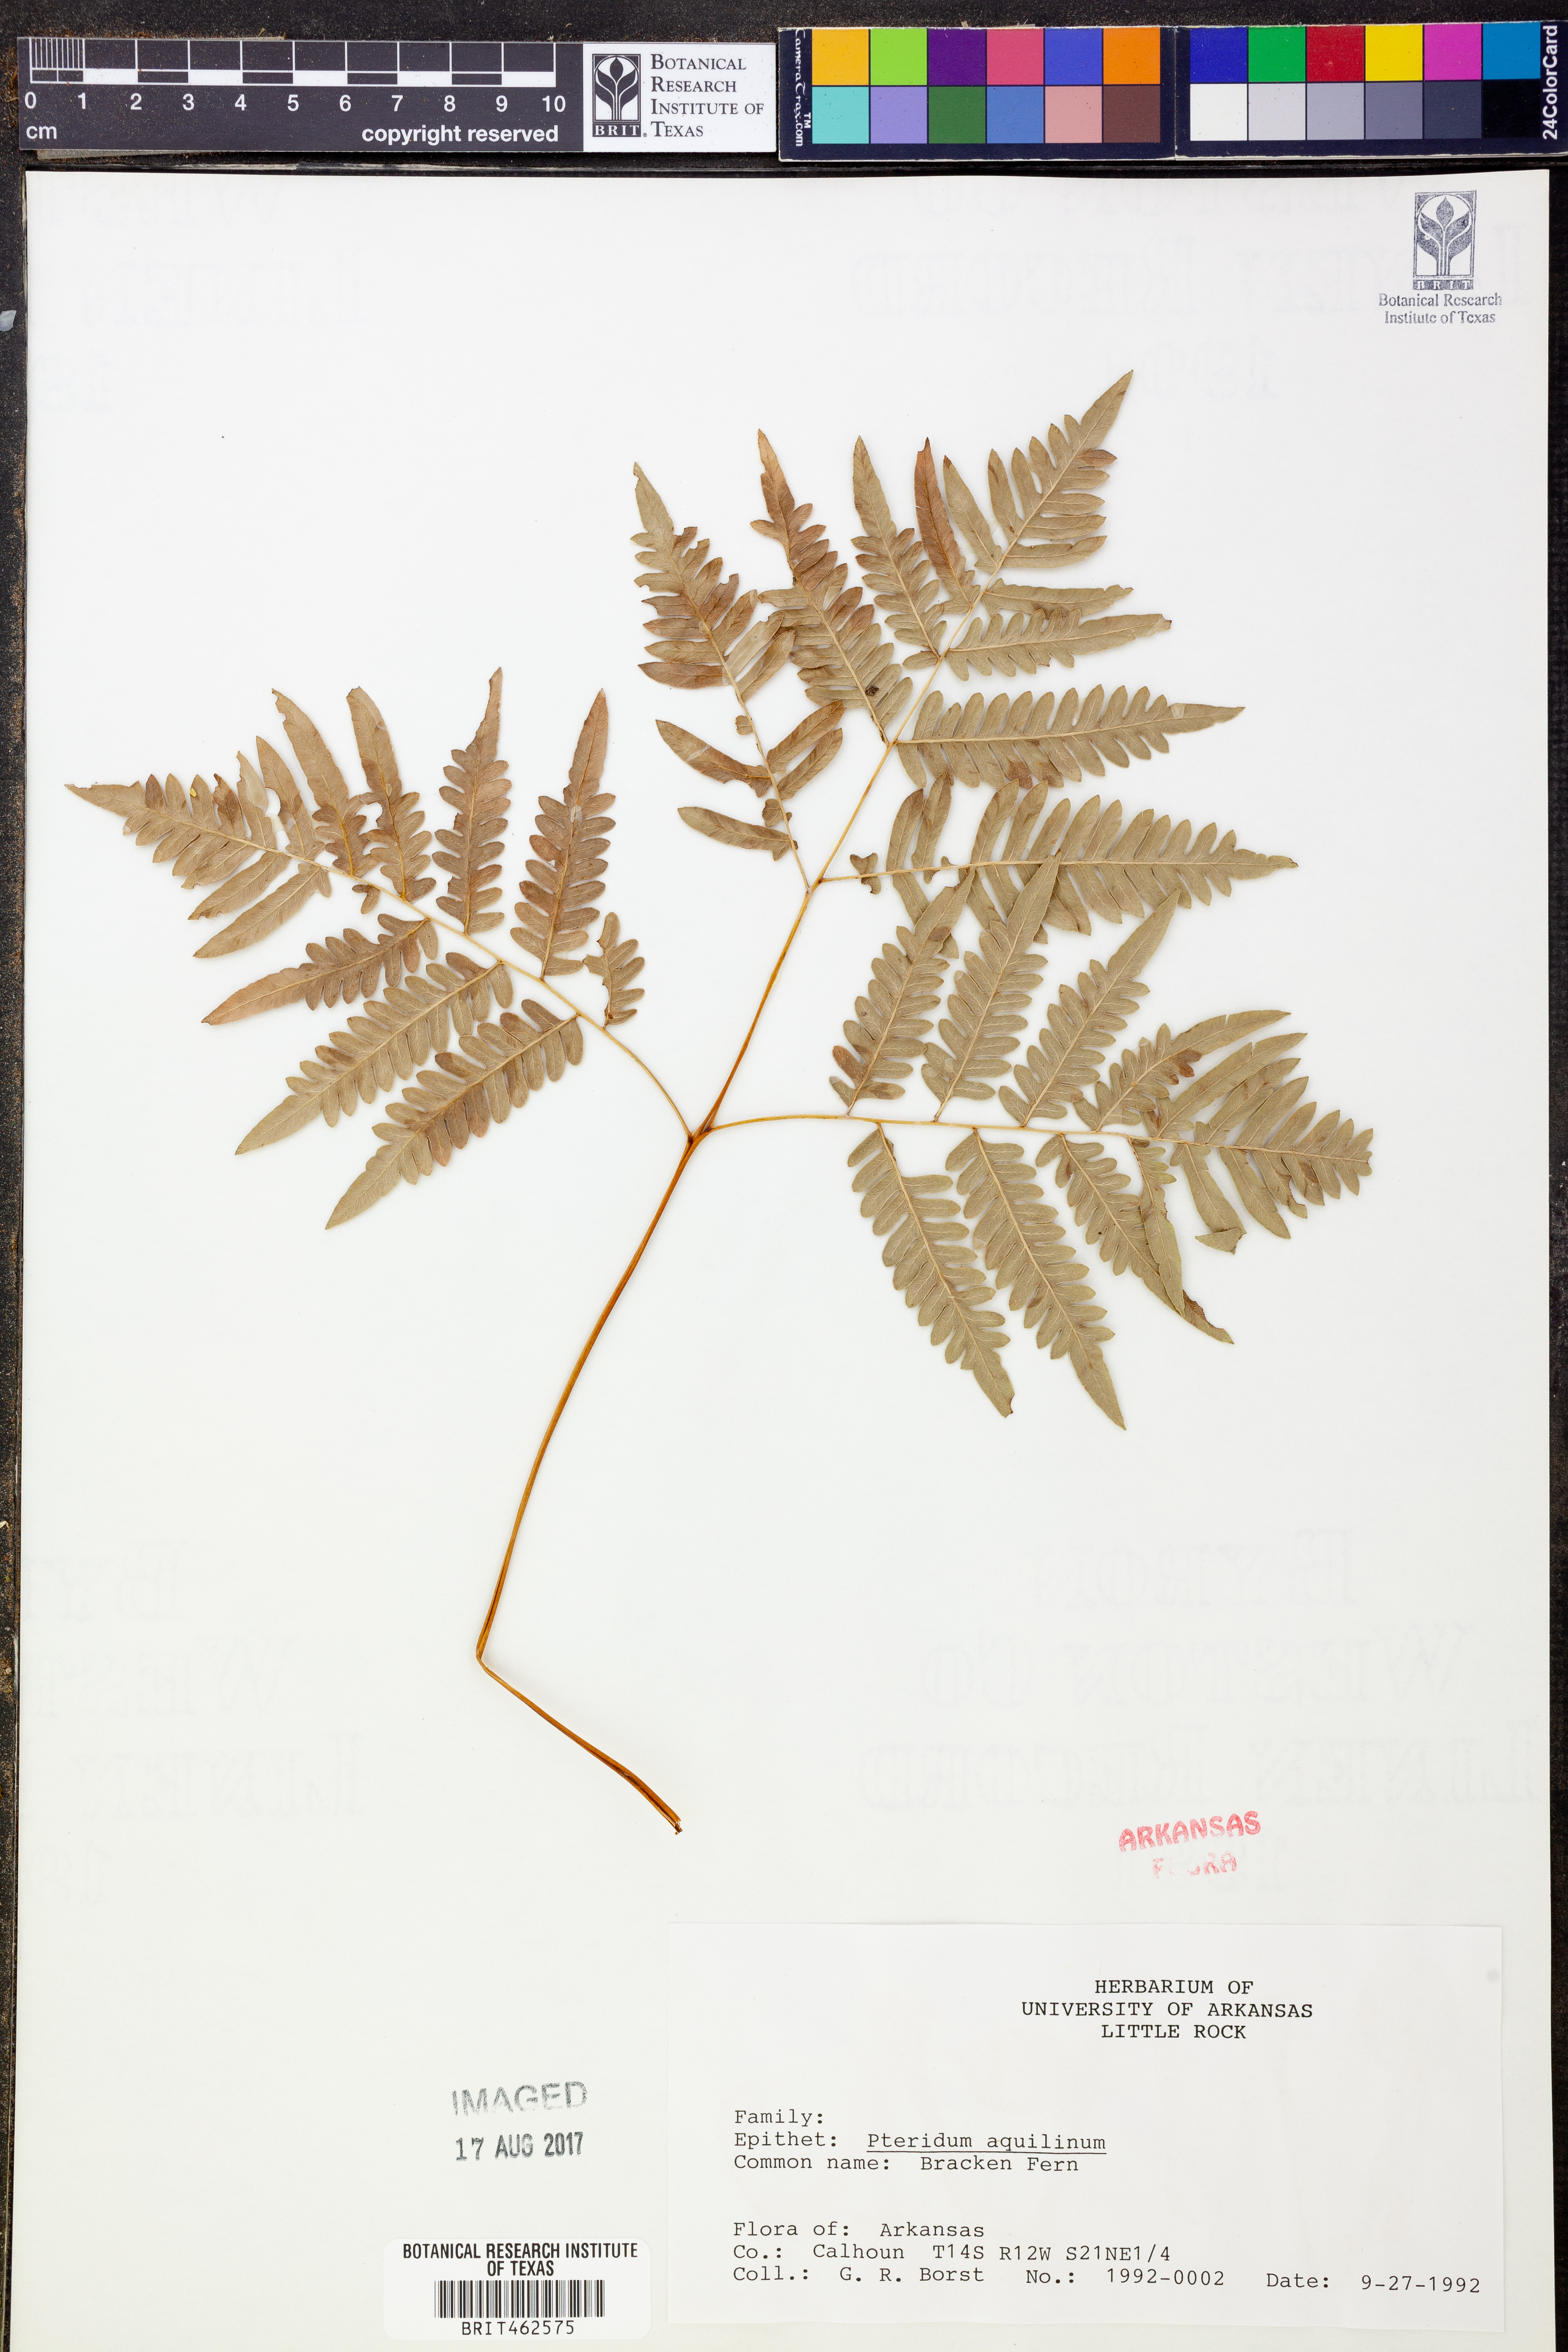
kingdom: Plantae
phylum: Tracheophyta
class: Polypodiopsida
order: Polypodiales
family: Dennstaedtiaceae
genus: Pteridium
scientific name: Pteridium aquilinum
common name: Bracken
